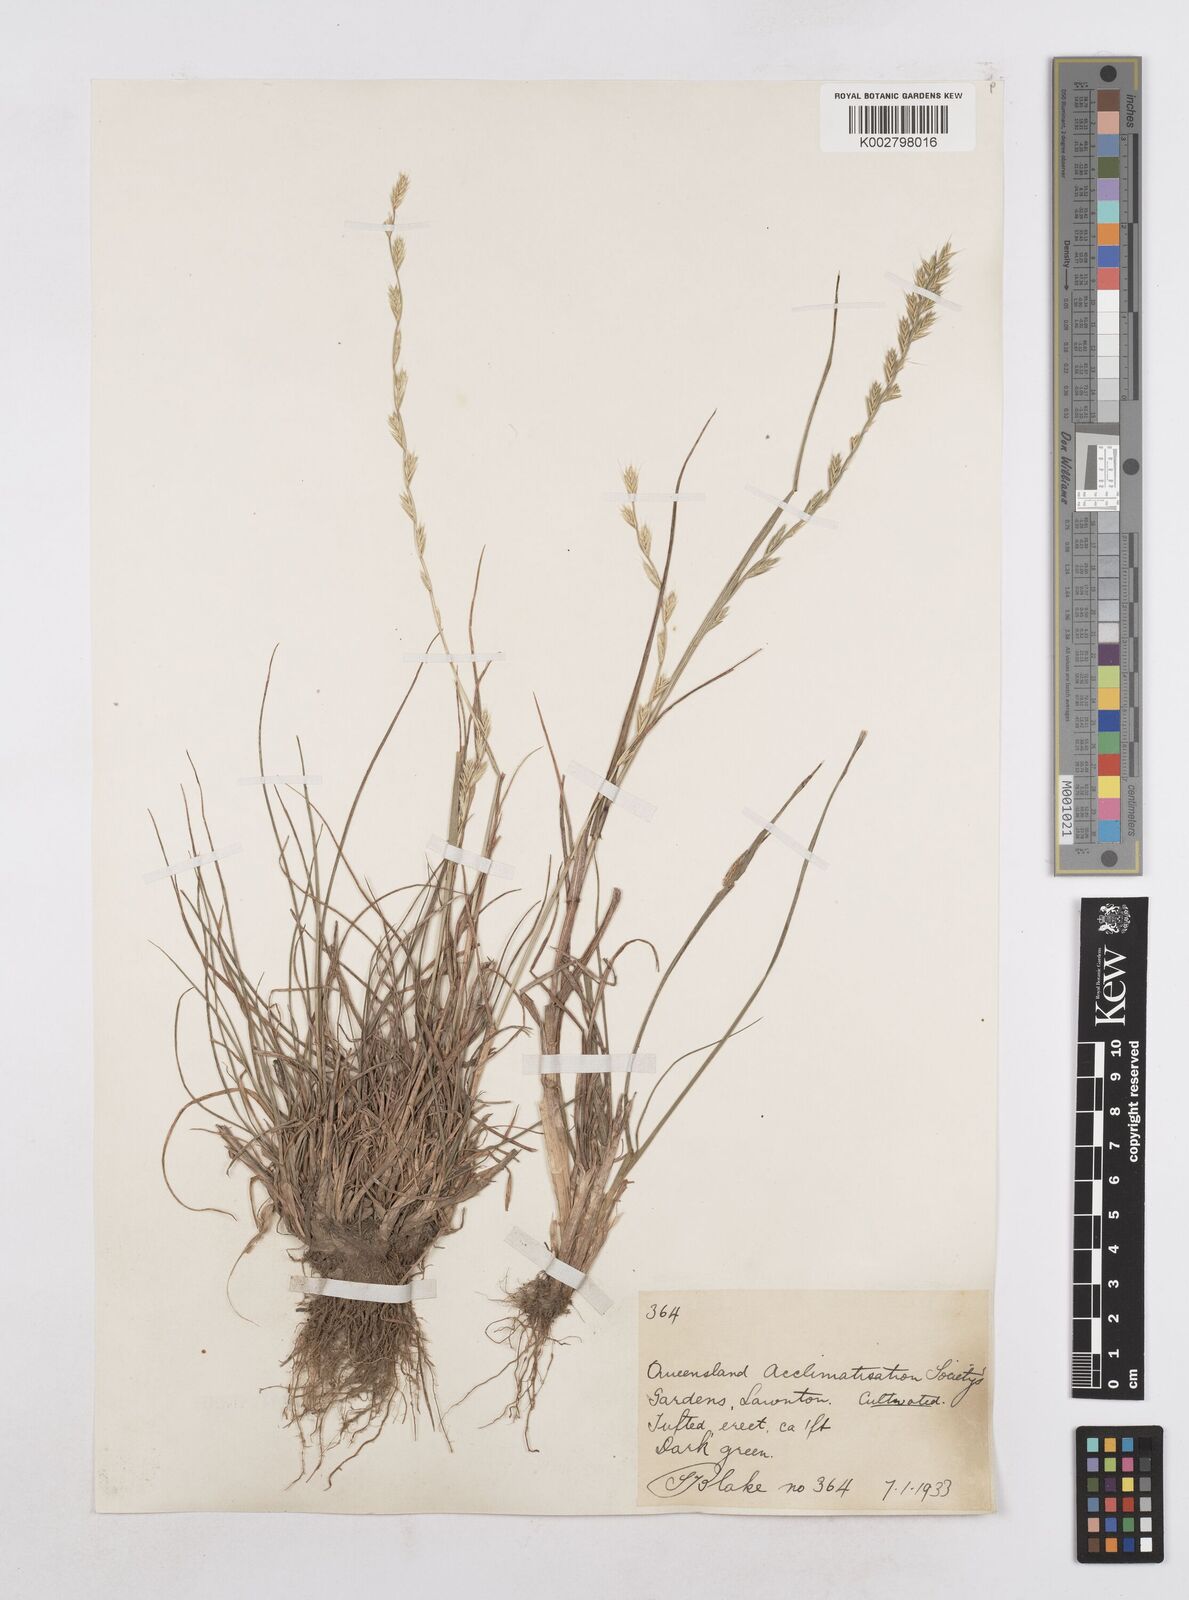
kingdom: Plantae
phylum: Tracheophyta
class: Liliopsida
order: Poales
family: Poaceae
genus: Lolium
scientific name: Lolium multiflorum
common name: Annual ryegrass
